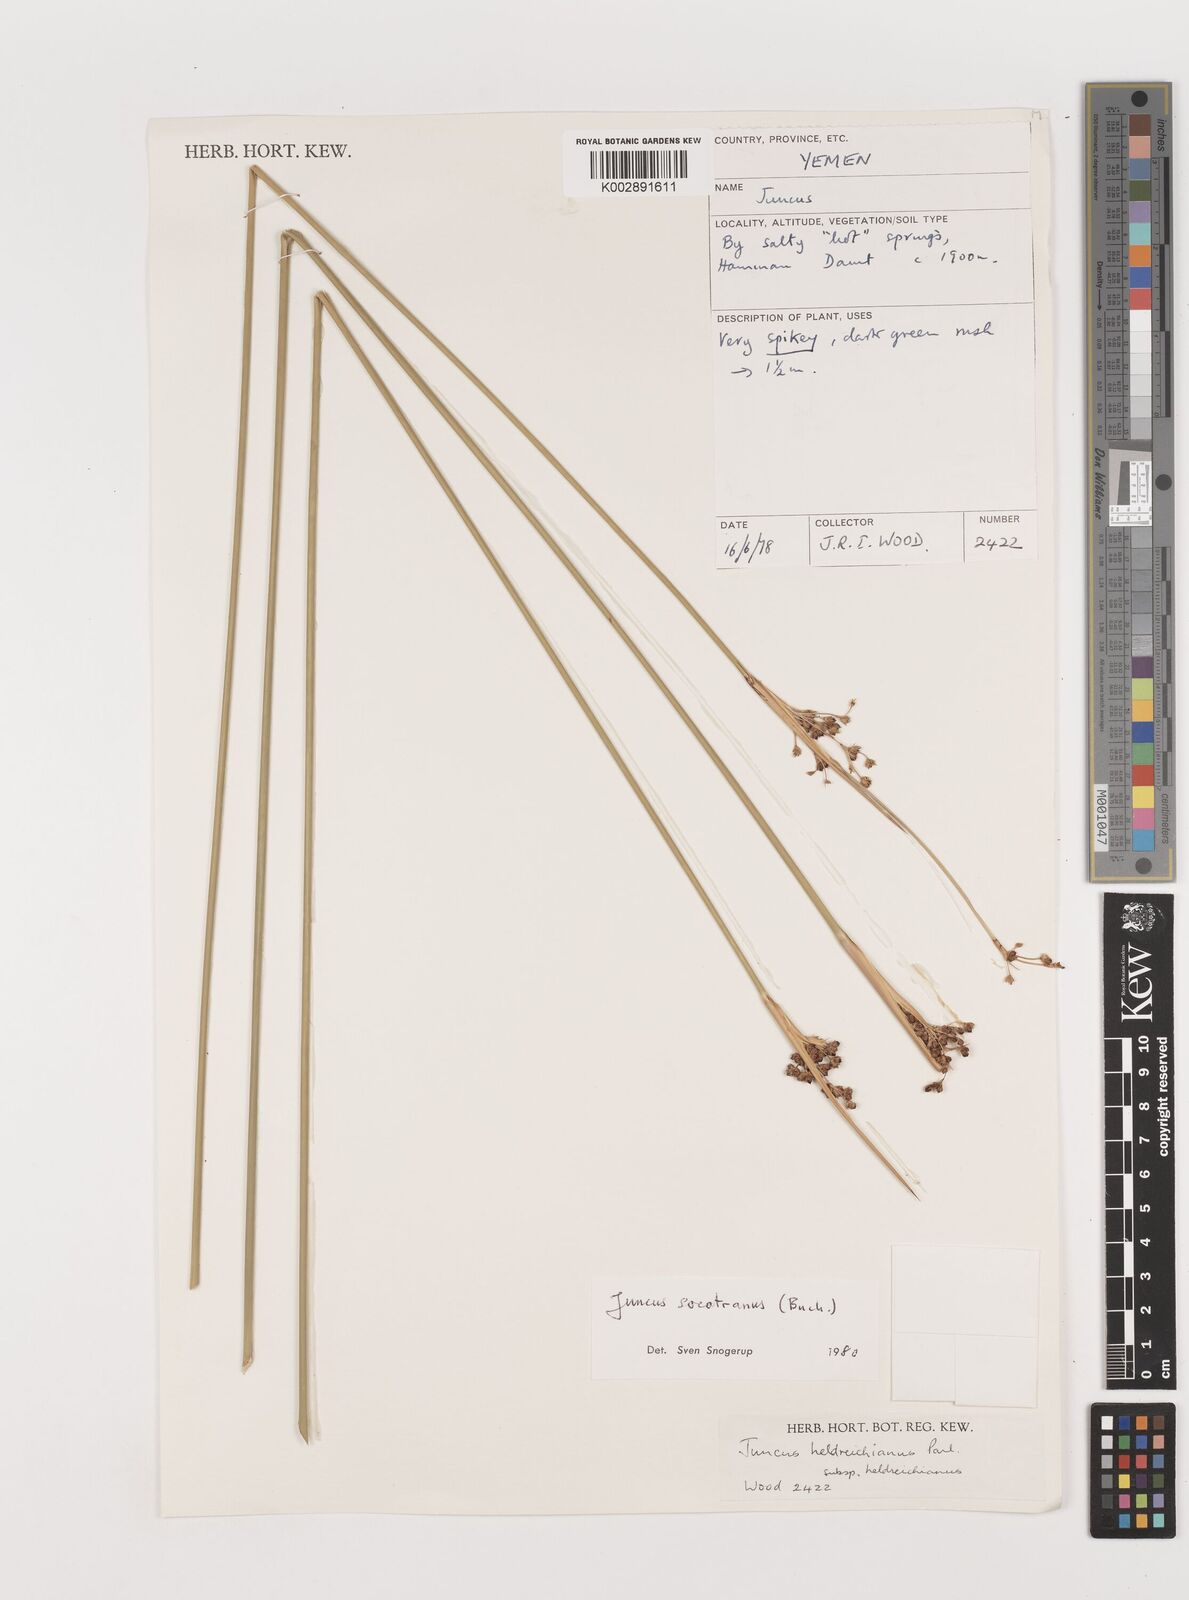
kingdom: Plantae
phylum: Tracheophyta
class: Liliopsida
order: Poales
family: Juncaceae
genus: Juncus
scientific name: Juncus socotranus
